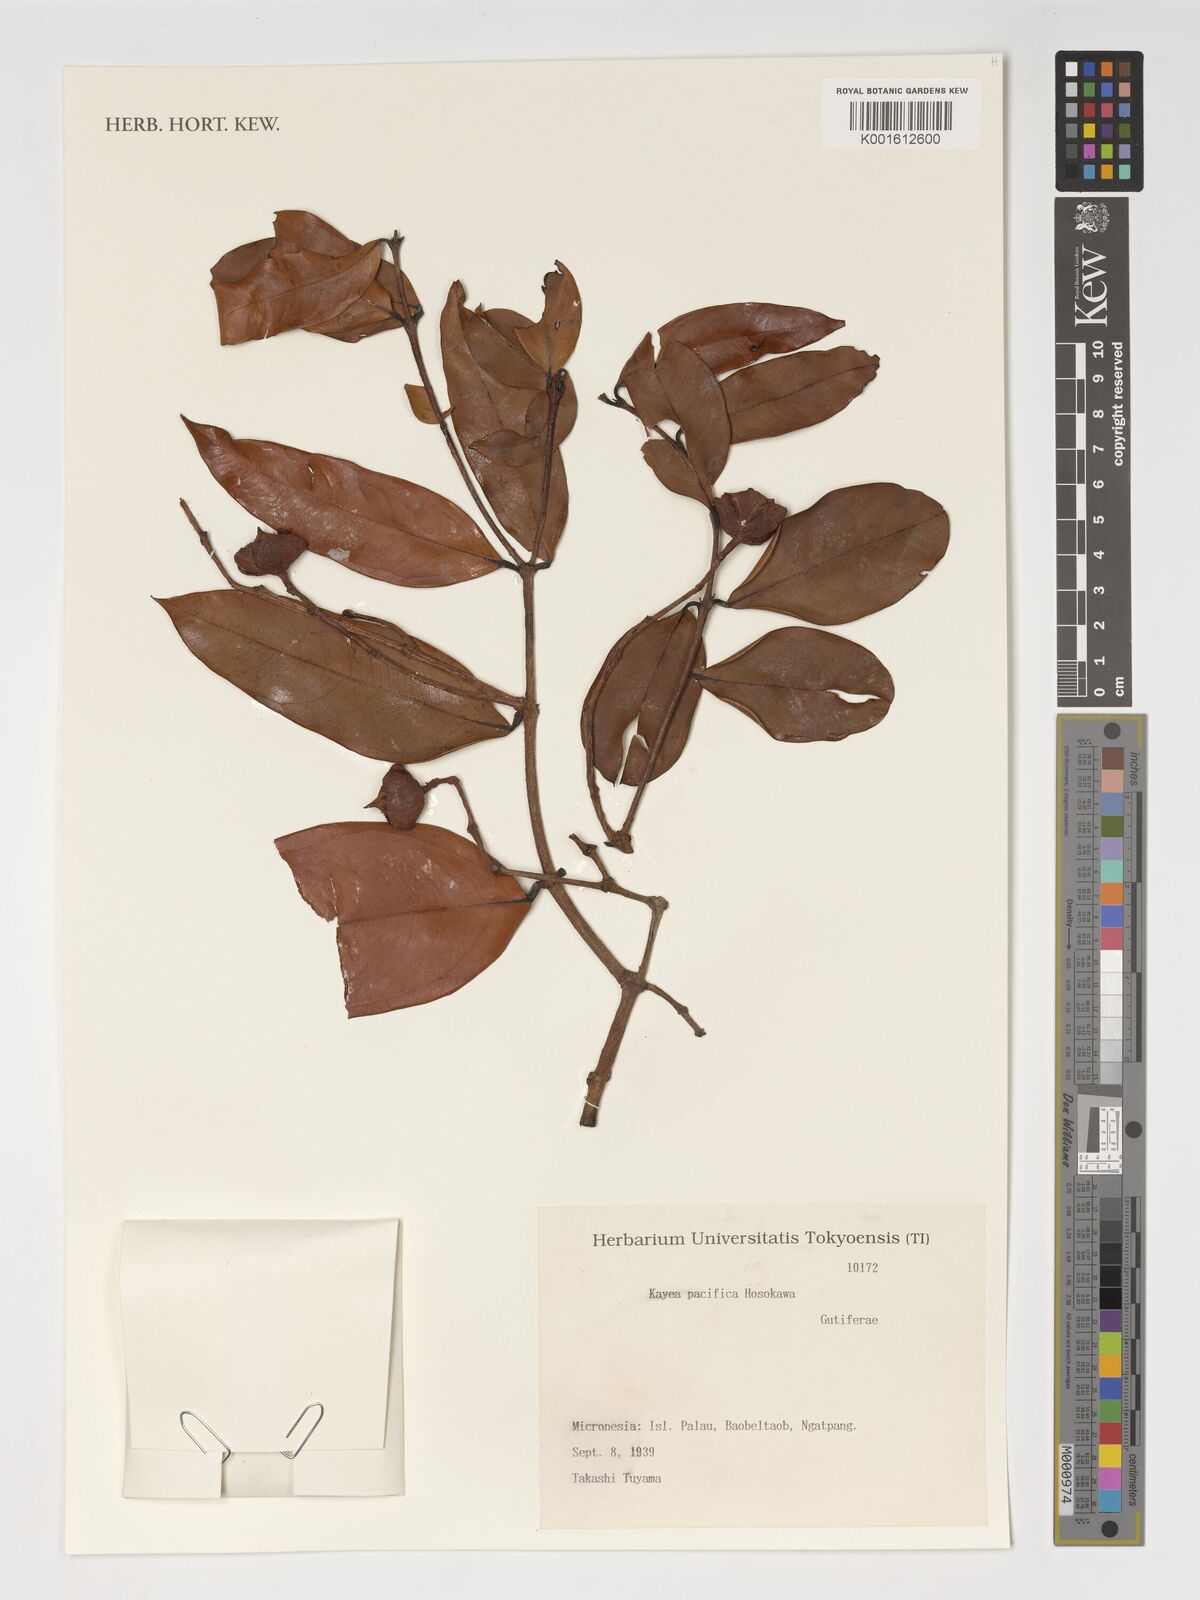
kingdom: Plantae
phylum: Tracheophyta
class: Magnoliopsida
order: Malpighiales
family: Calophyllaceae
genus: Kayea
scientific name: Kayea pacifica
